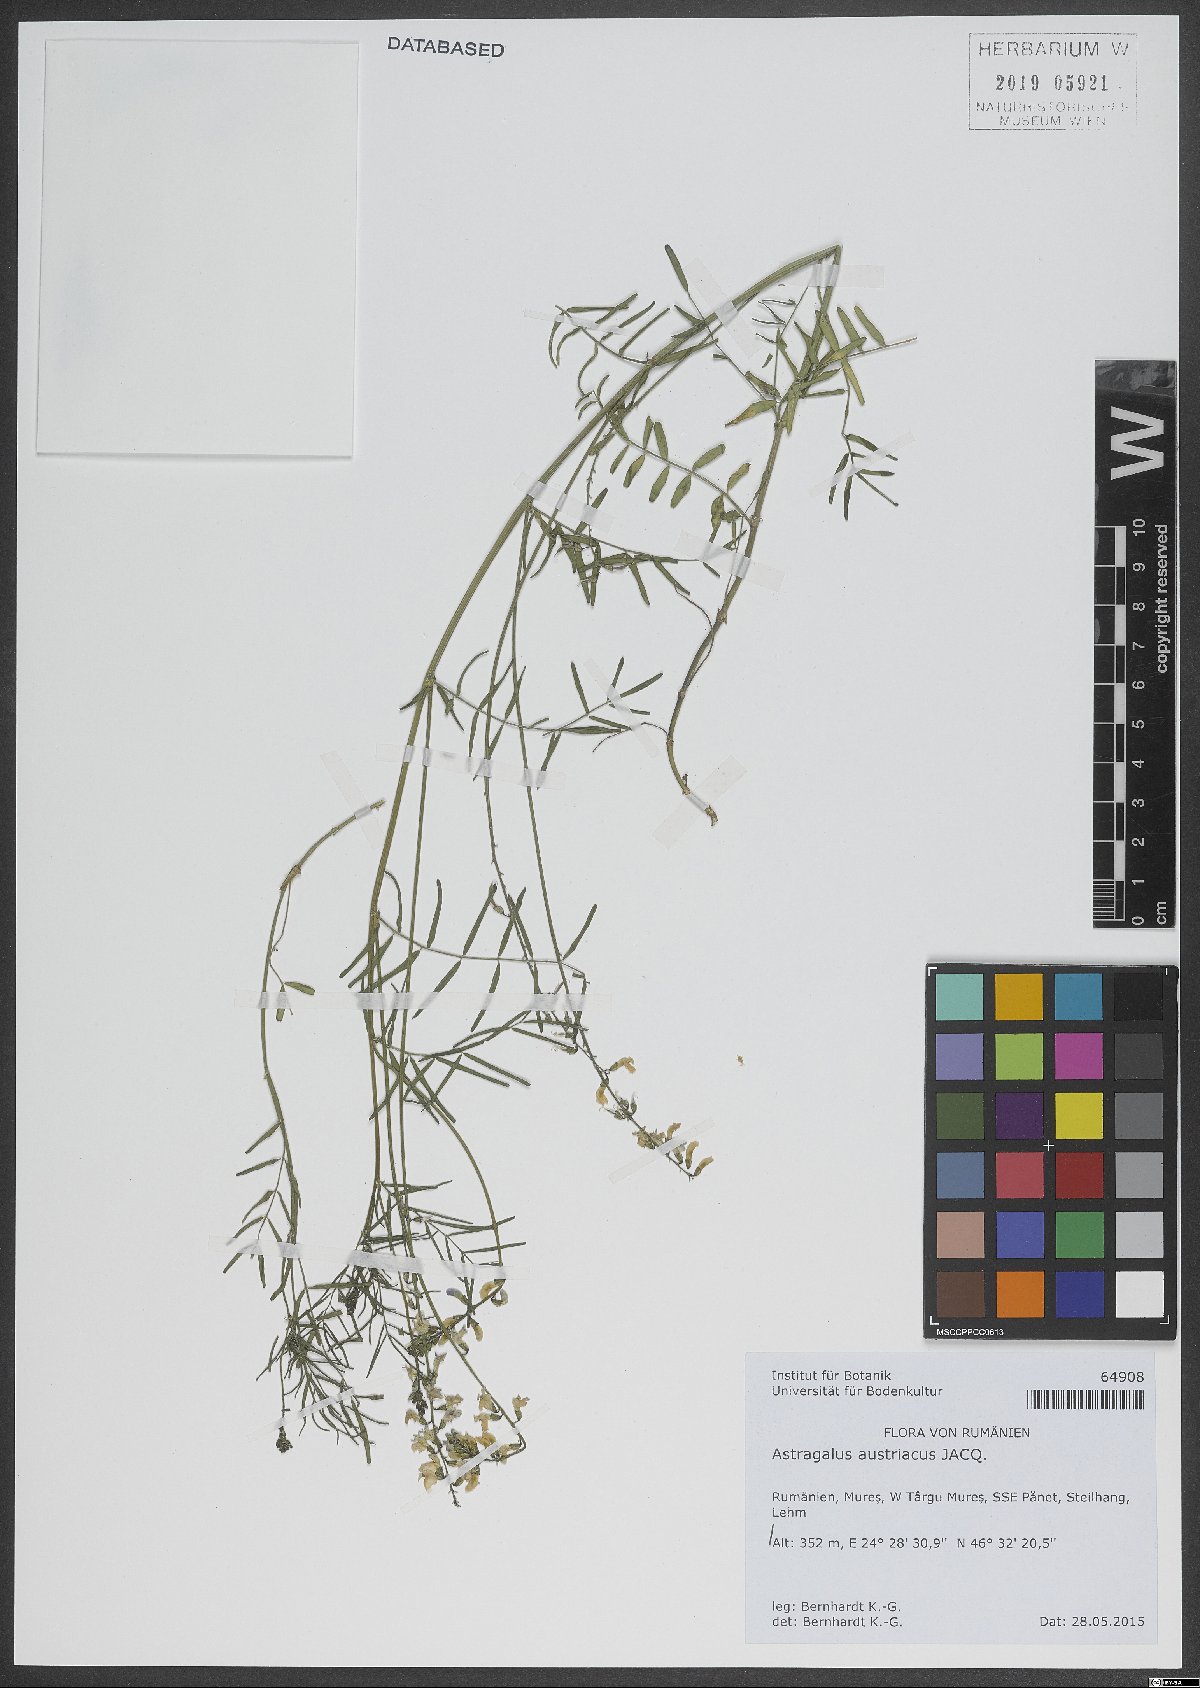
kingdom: Plantae
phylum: Tracheophyta
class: Magnoliopsida
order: Fabales
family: Fabaceae
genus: Astragalus
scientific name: Astragalus austriacus
